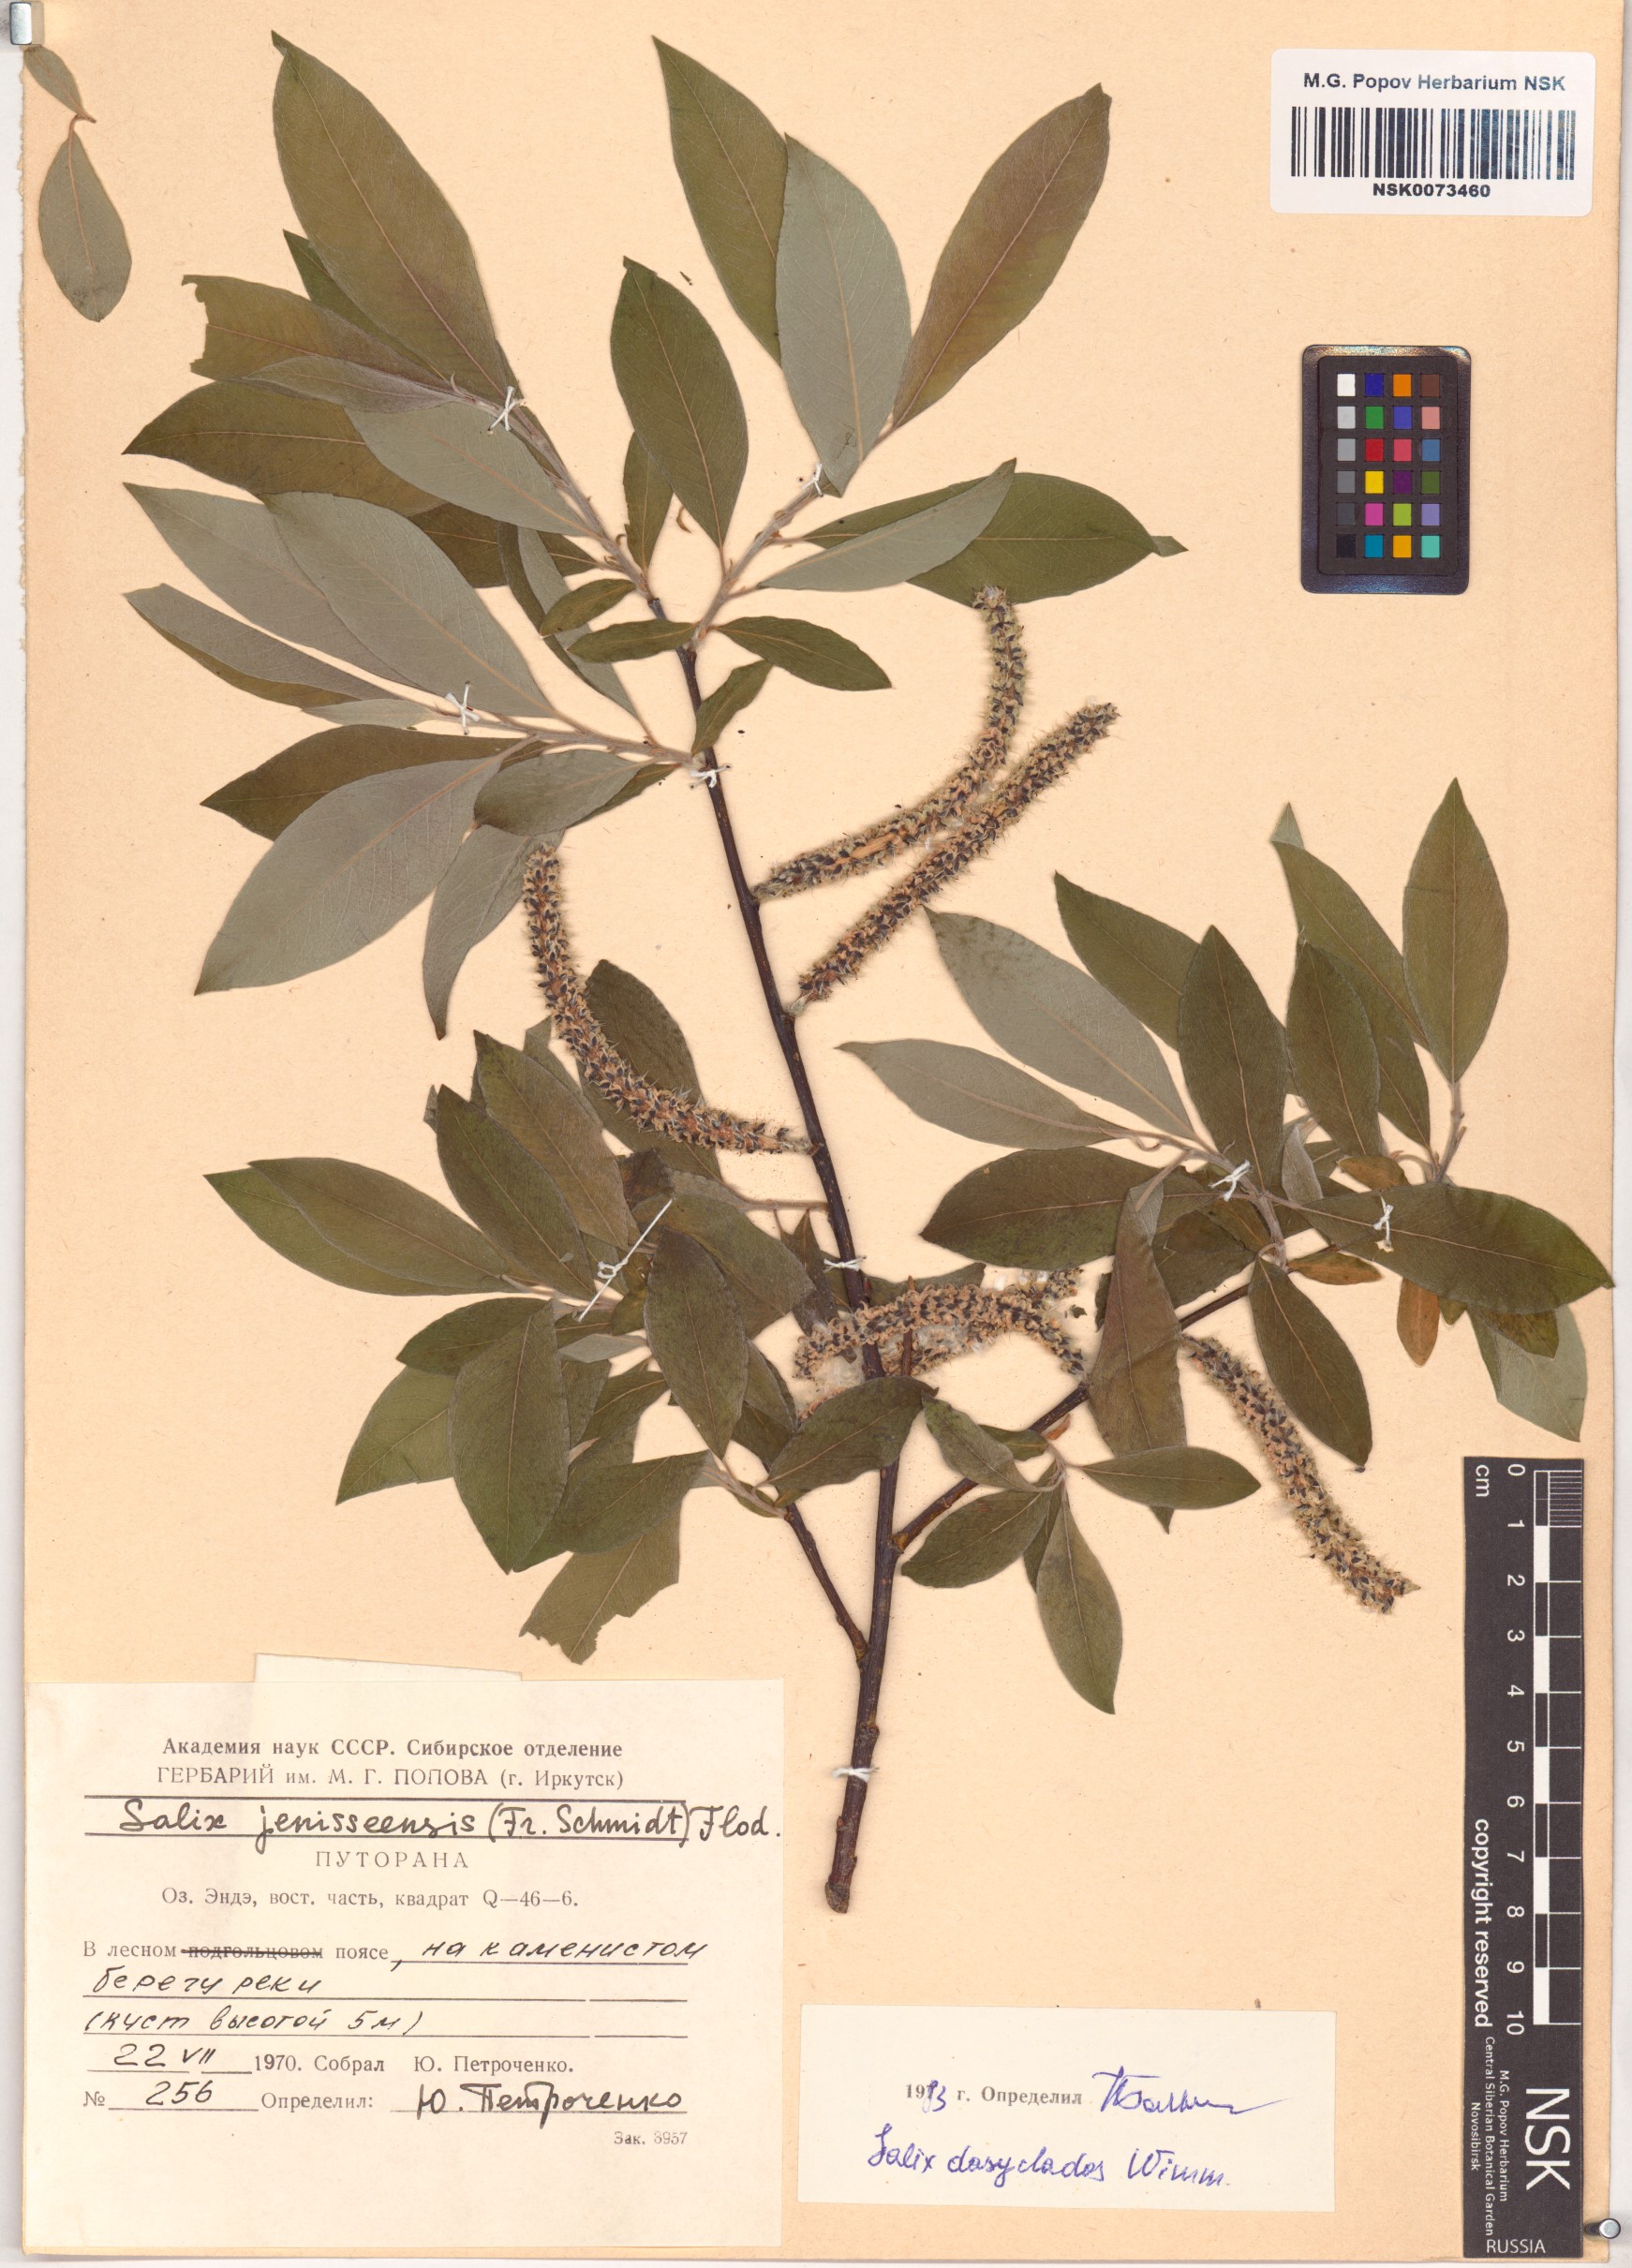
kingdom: Plantae
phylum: Tracheophyta
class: Magnoliopsida
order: Malpighiales
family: Salicaceae
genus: Salix
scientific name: Salix gmelinii
